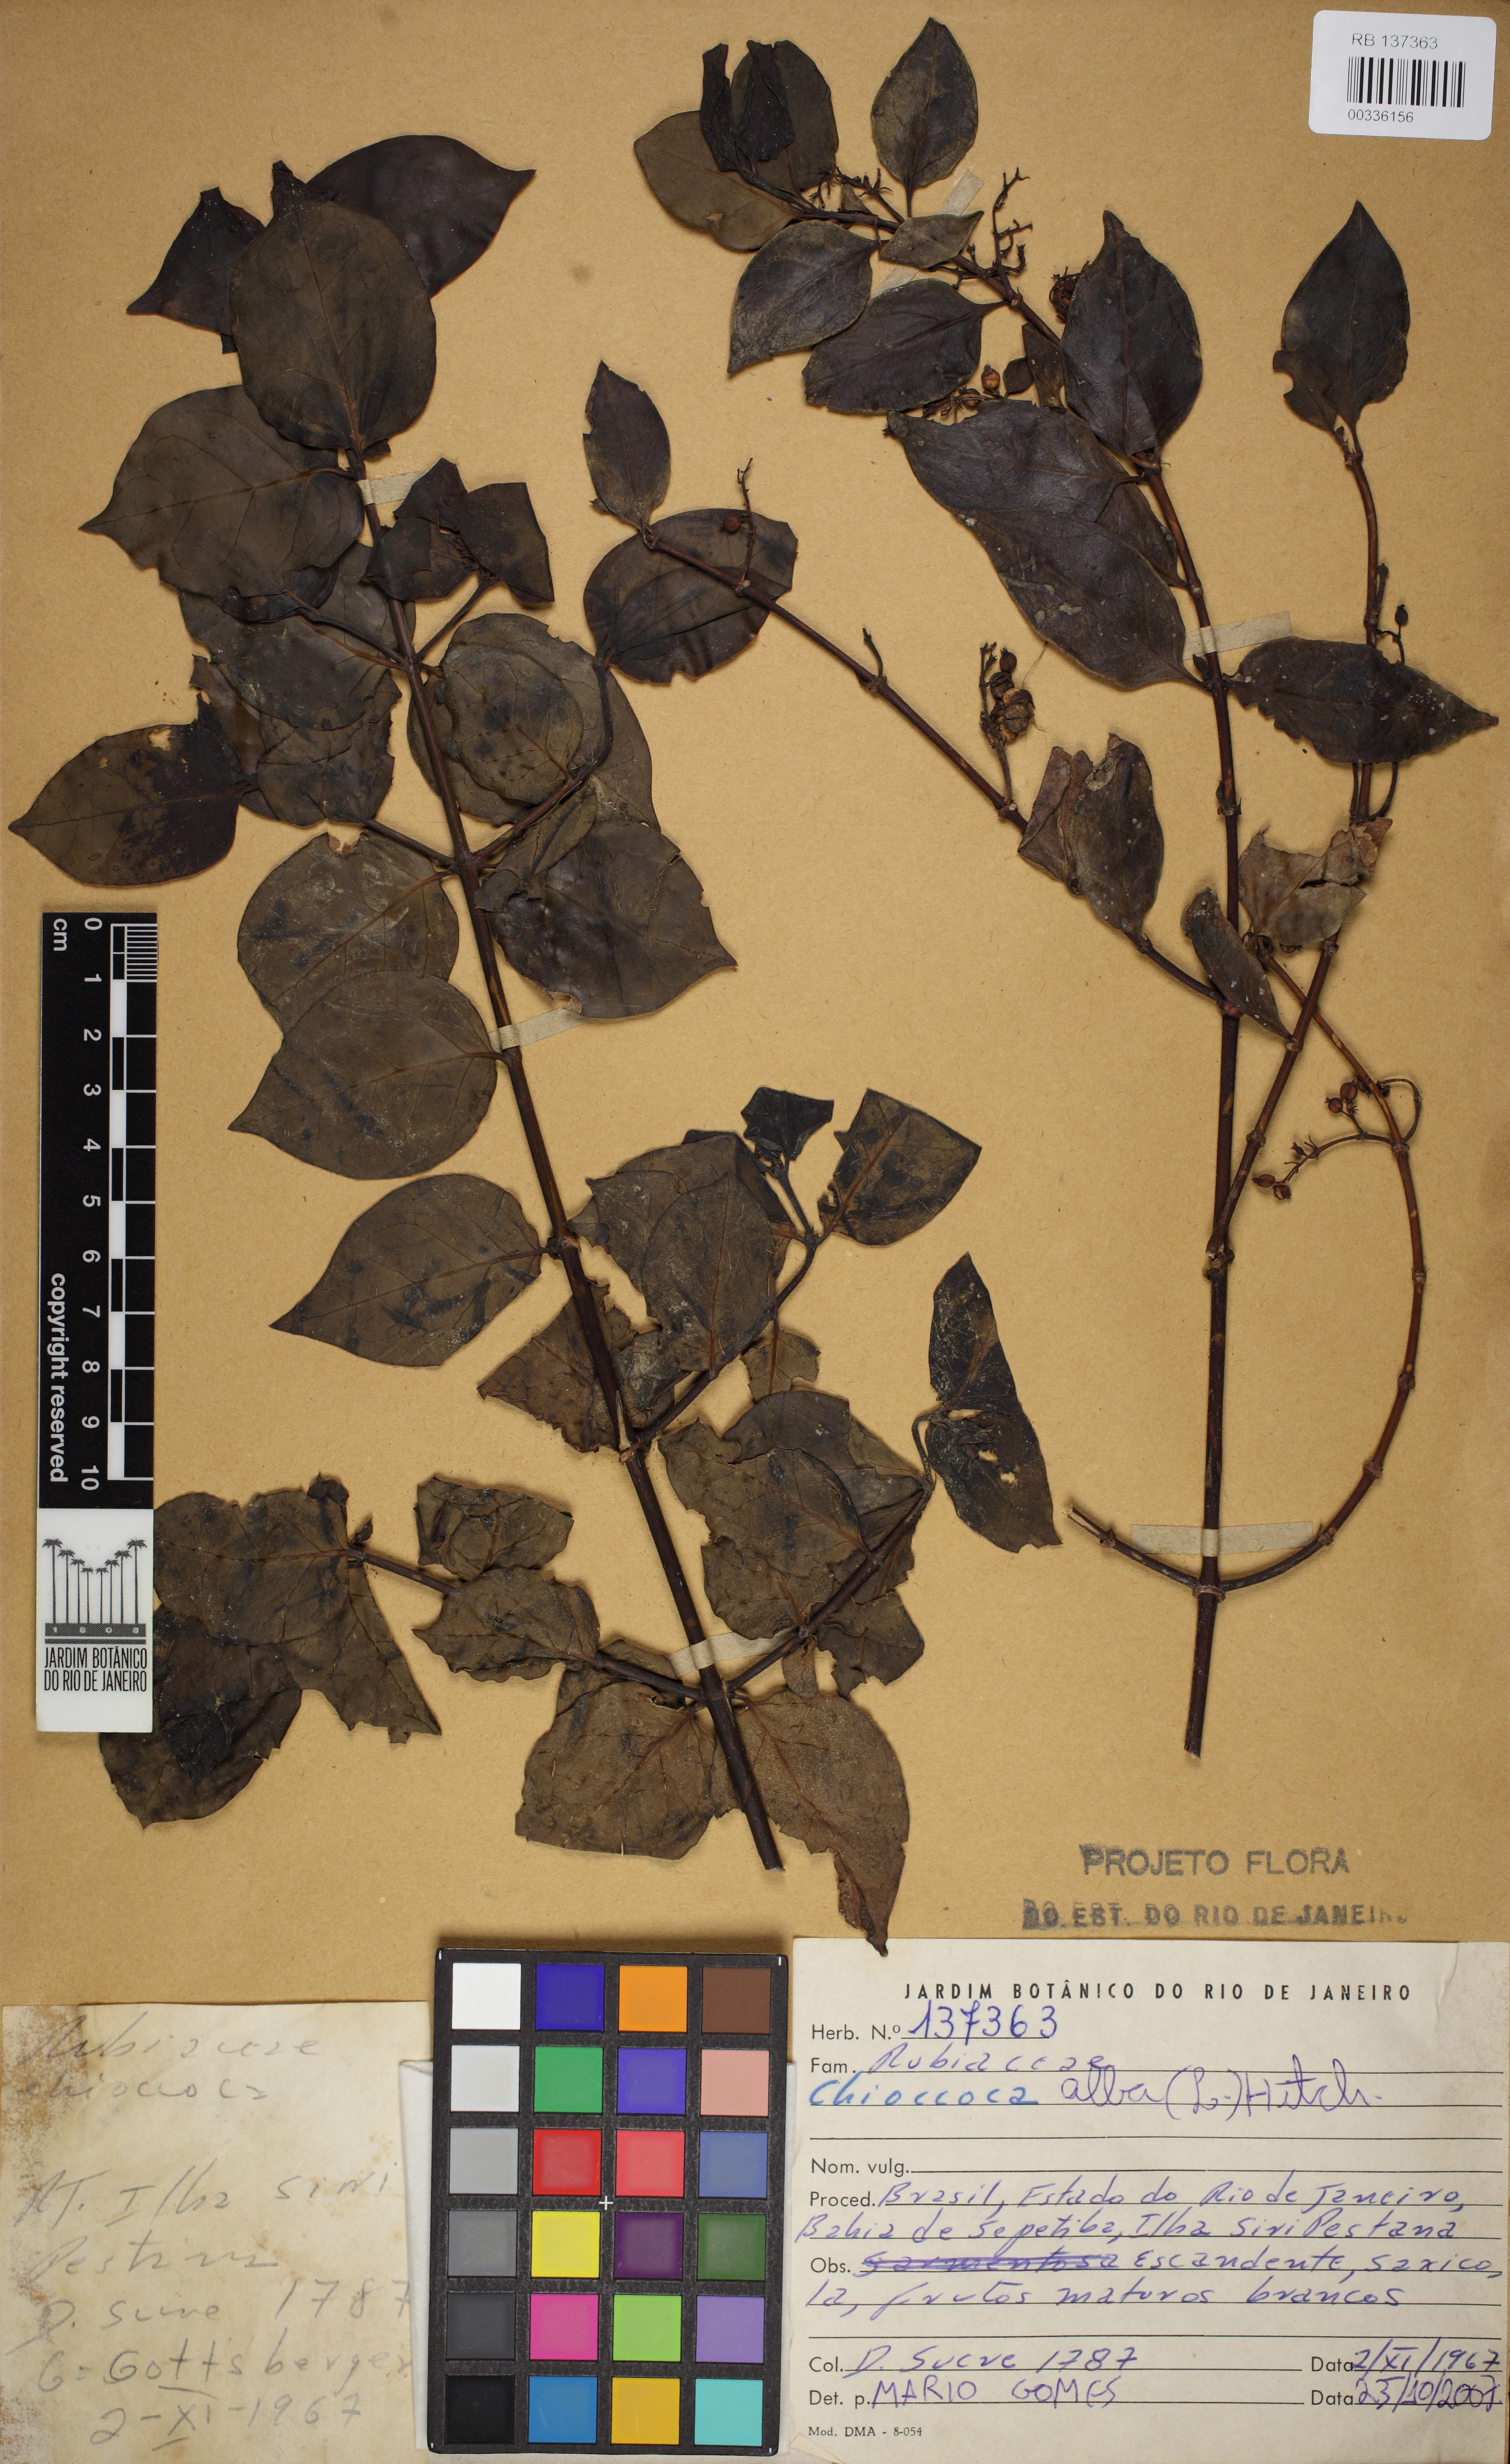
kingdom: Plantae
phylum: Tracheophyta
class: Magnoliopsida
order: Gentianales
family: Rubiaceae
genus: Chiococca
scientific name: Chiococca alba
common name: Snowberry
